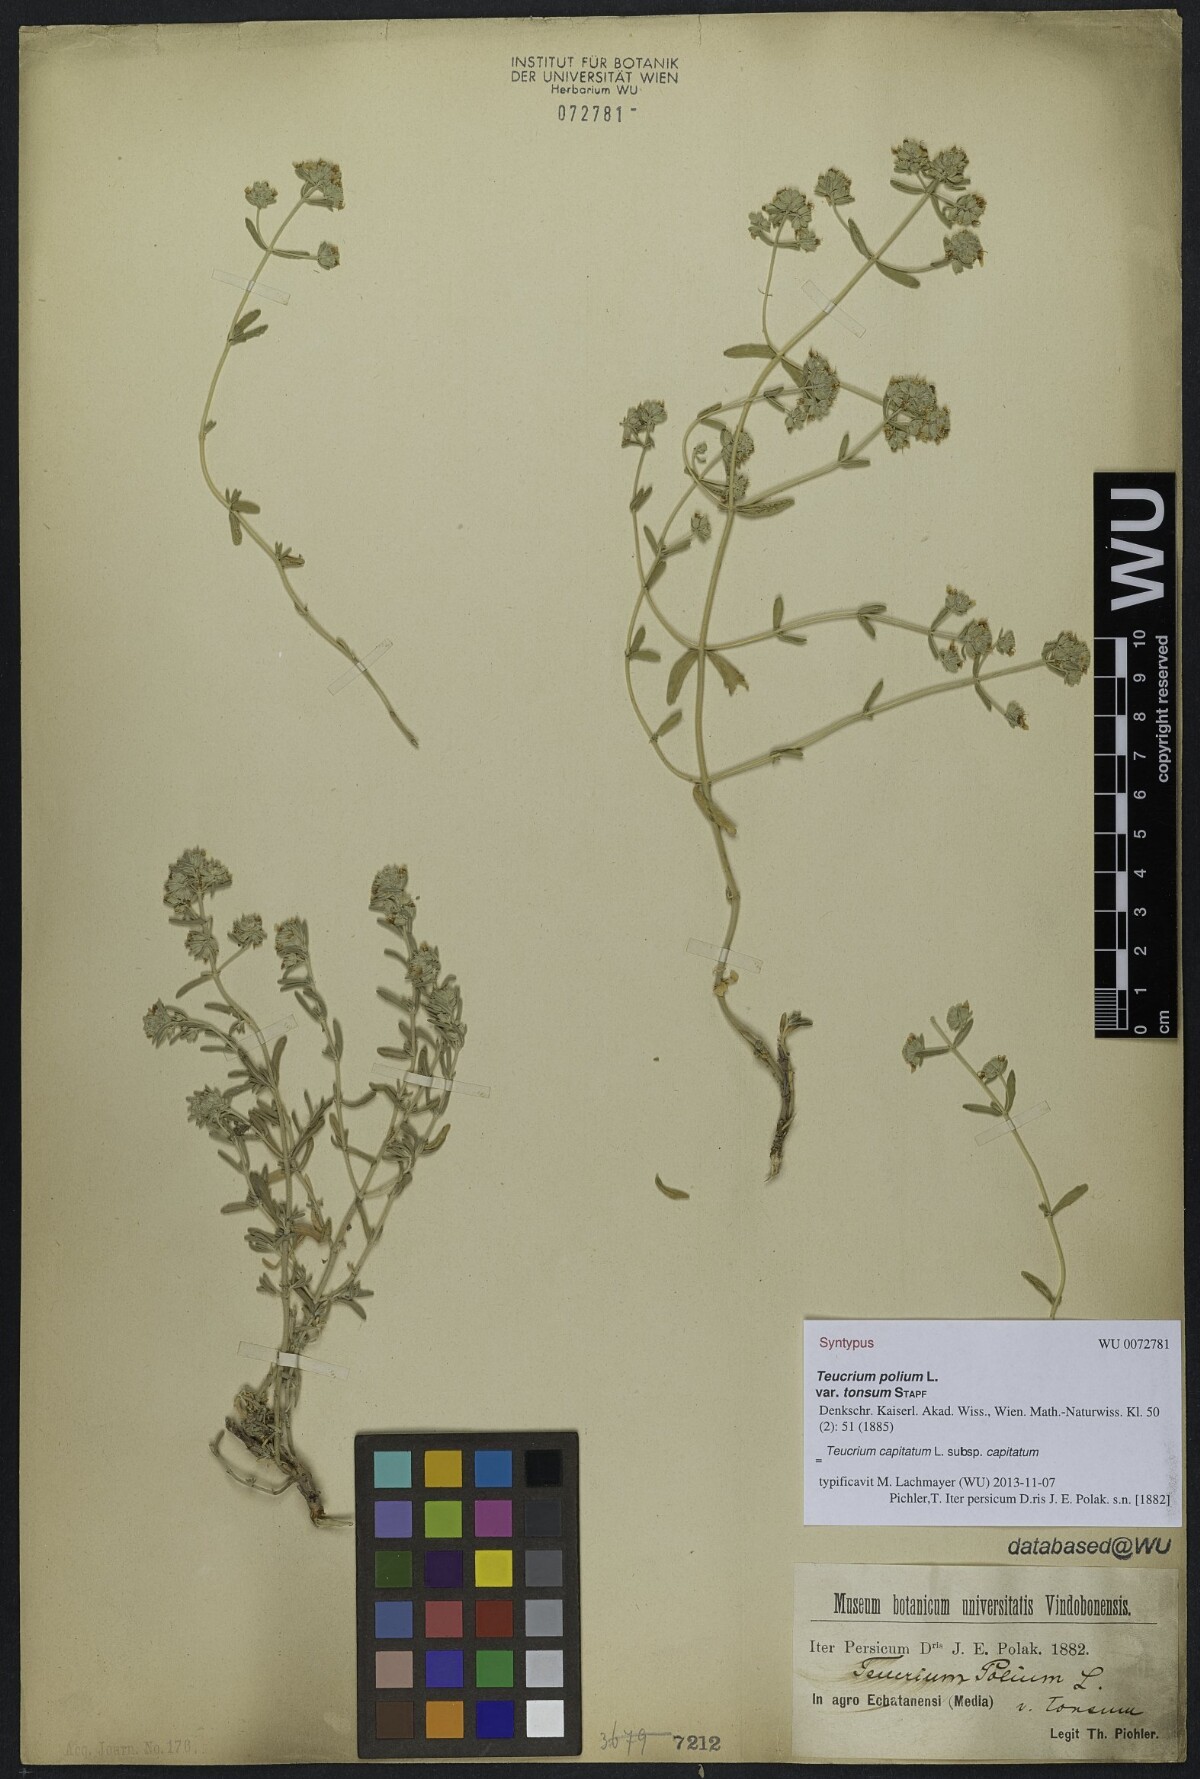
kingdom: Plantae
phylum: Tracheophyta
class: Magnoliopsida
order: Lamiales
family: Lamiaceae
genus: Teucrium
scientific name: Teucrium capitatum
